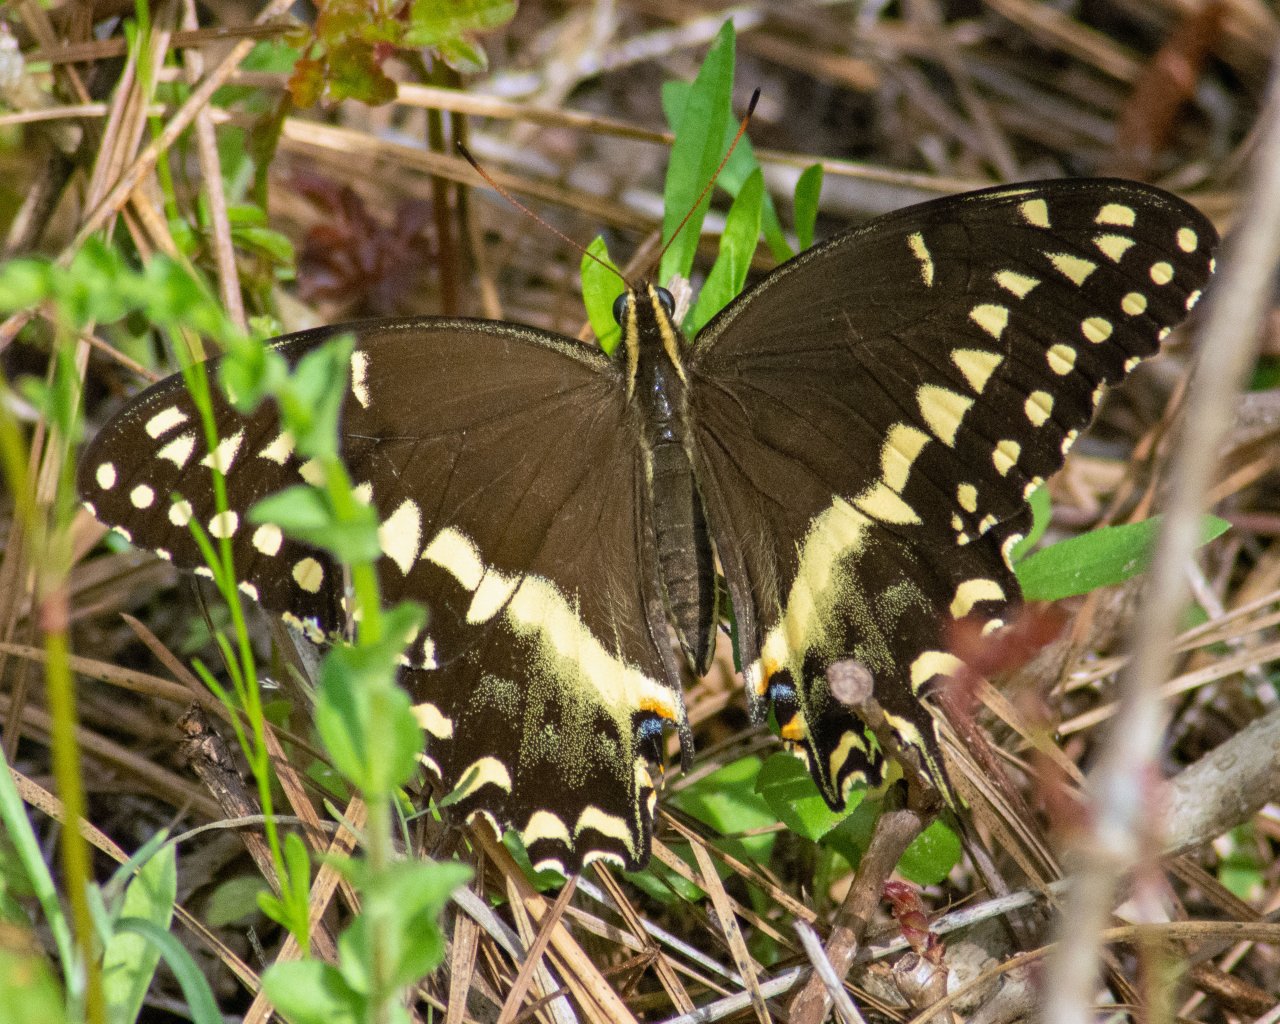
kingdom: Animalia
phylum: Arthropoda
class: Insecta
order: Lepidoptera
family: Papilionidae
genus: Pterourus
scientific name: Pterourus palamedes
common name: Palamedes Swallowtail
